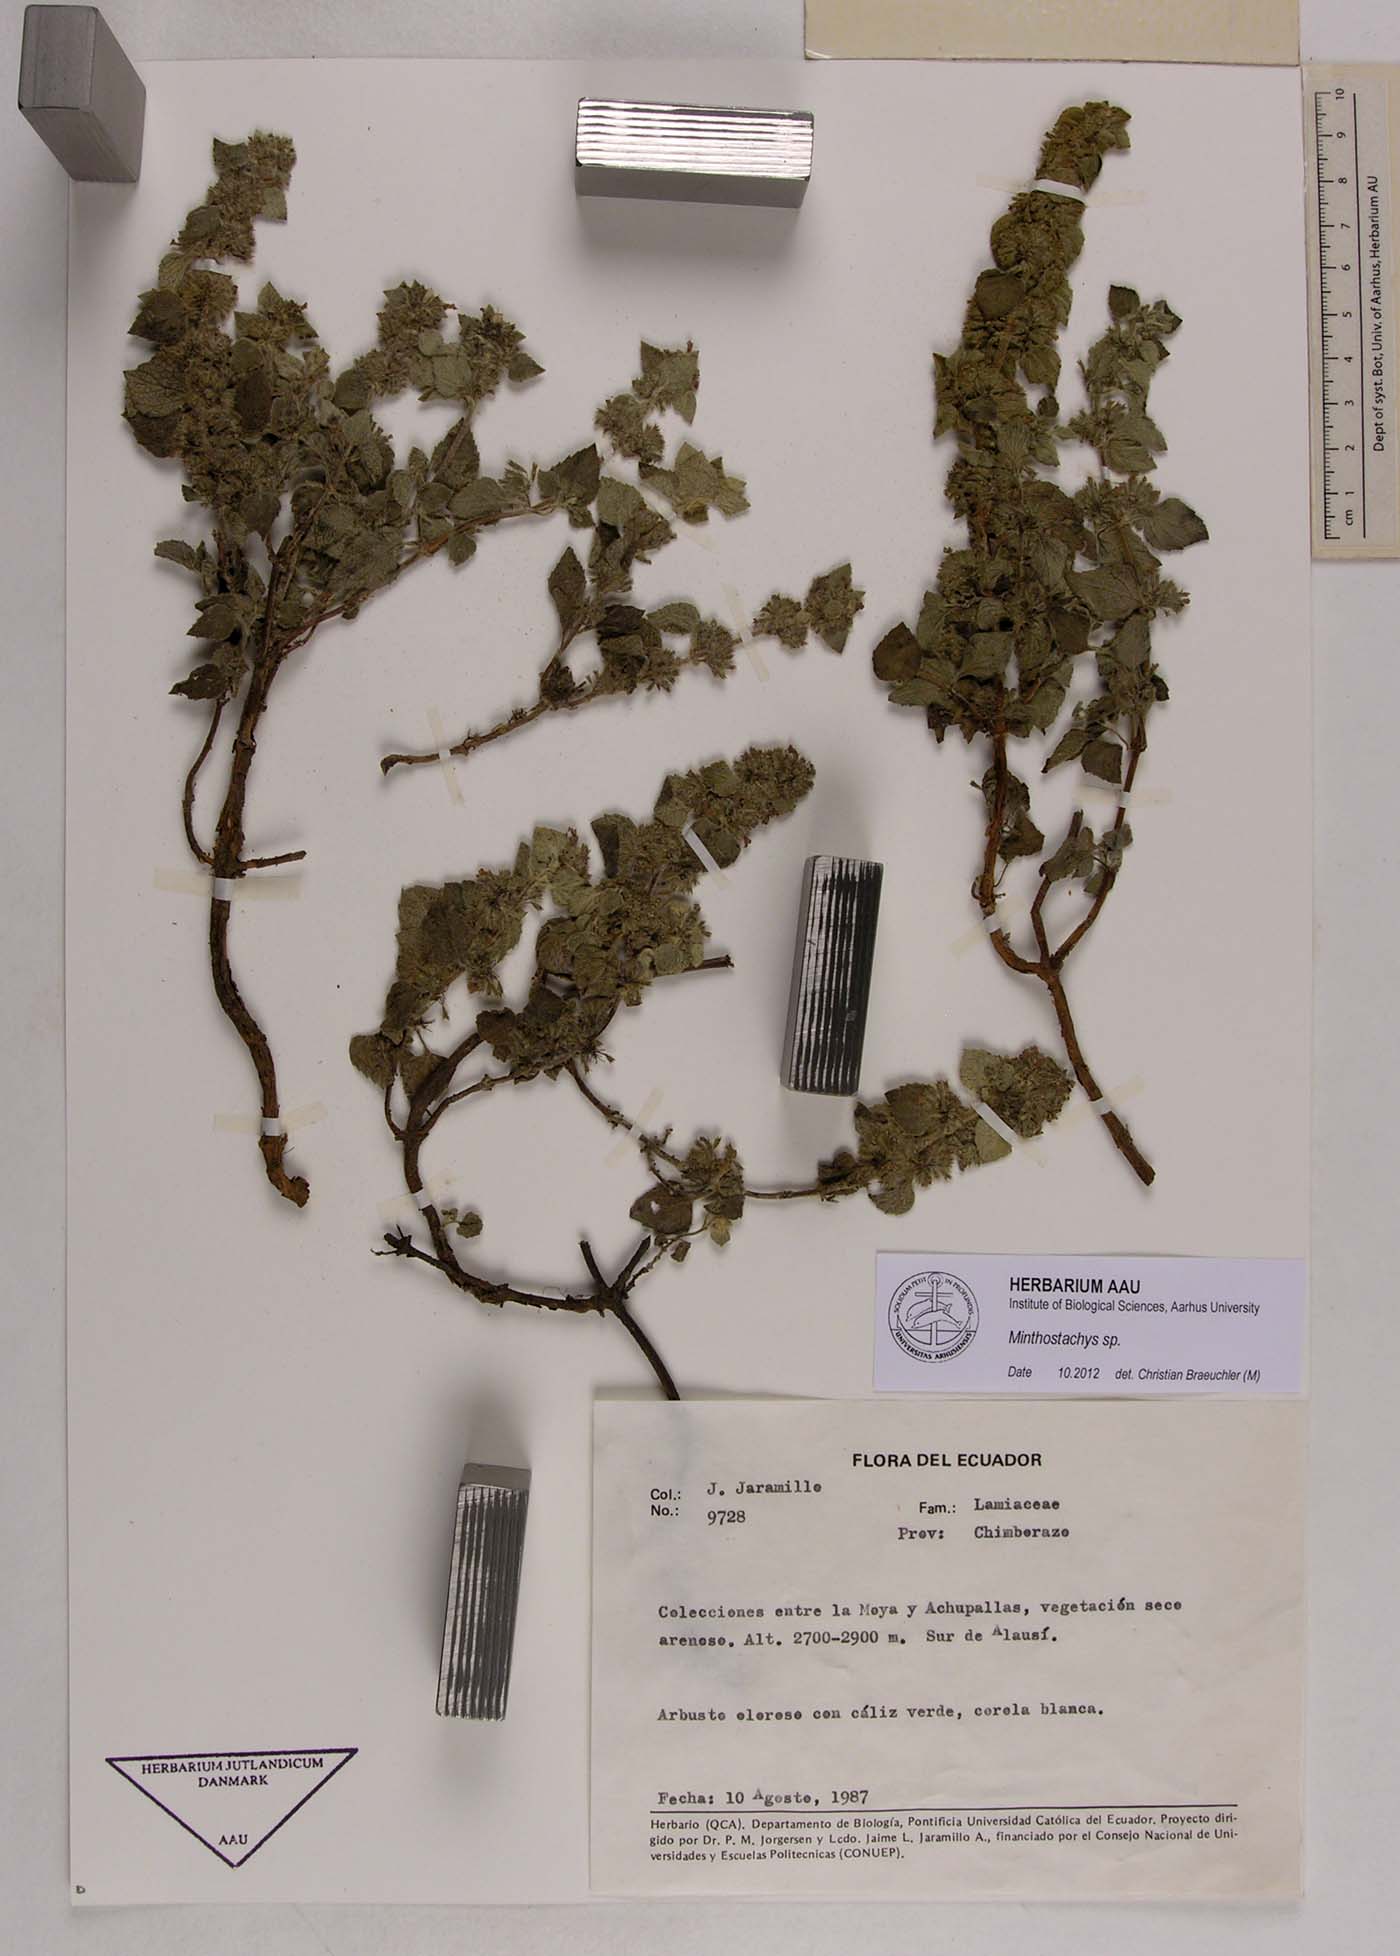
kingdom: Plantae
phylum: Tracheophyta
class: Magnoliopsida
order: Lamiales
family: Lamiaceae
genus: Minthostachys
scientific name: Minthostachys
